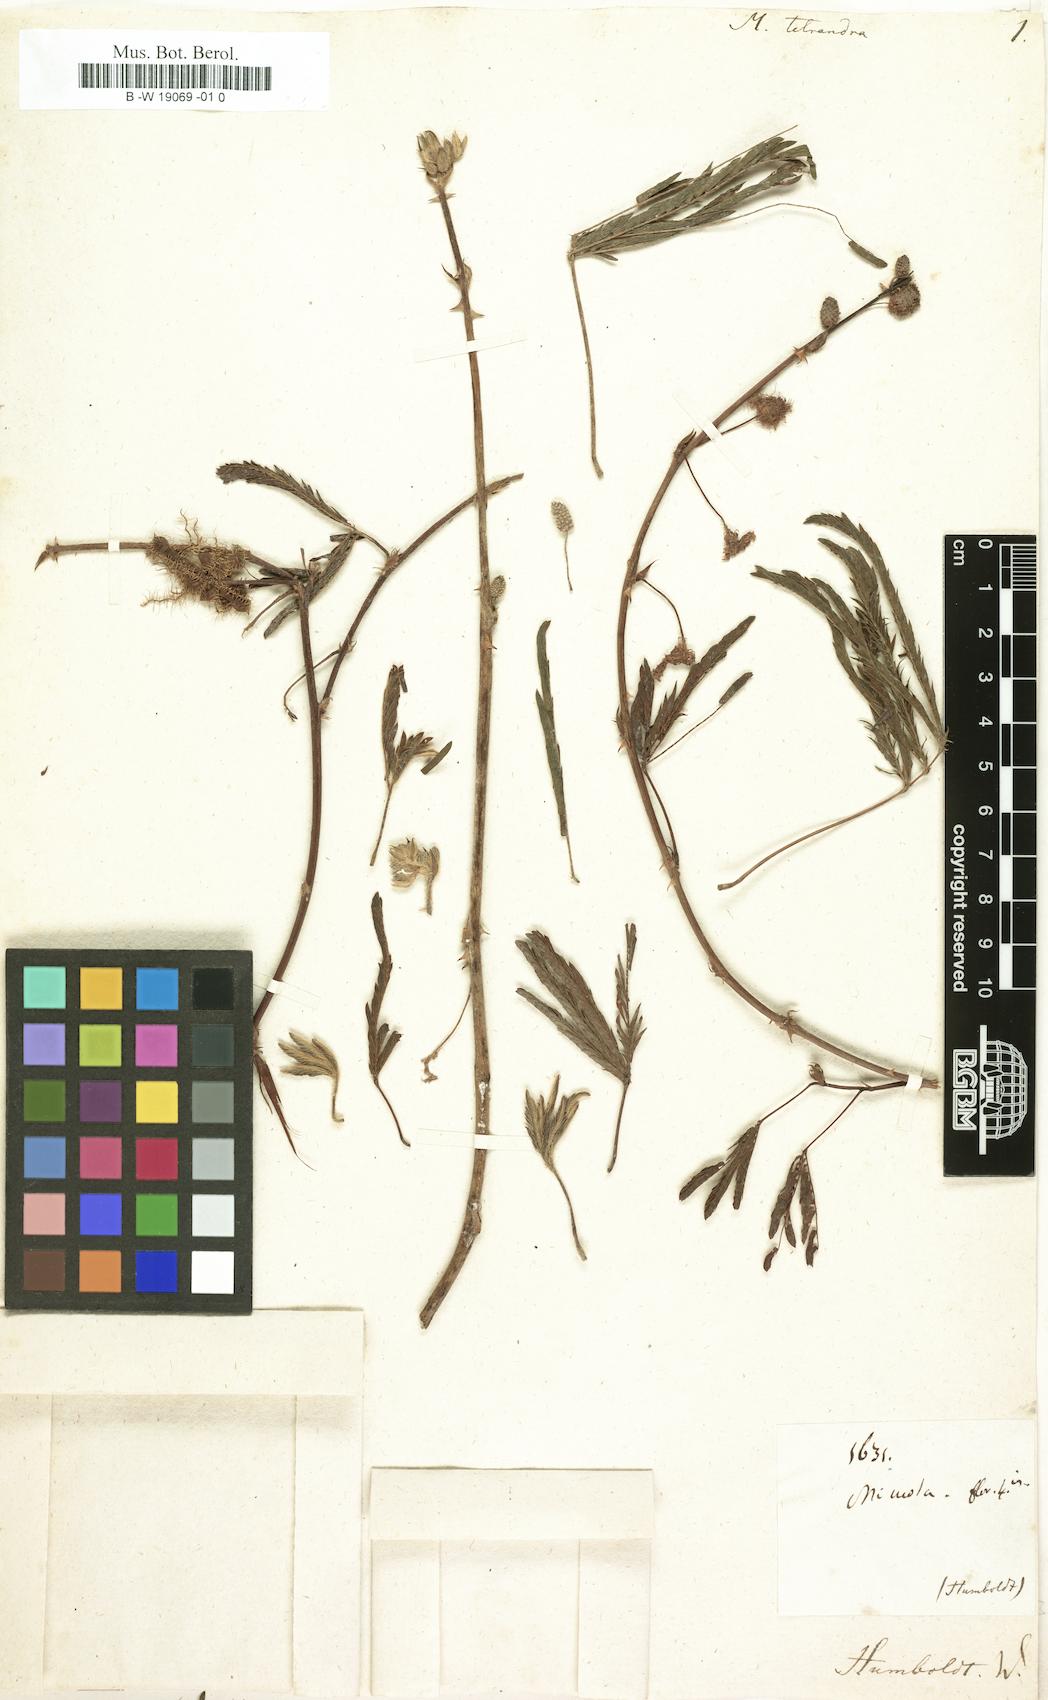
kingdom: Plantae
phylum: Tracheophyta
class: Magnoliopsida
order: Fabales
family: Fabaceae
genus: Mimosa
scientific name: Mimosa pudica
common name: Sensitive plant
